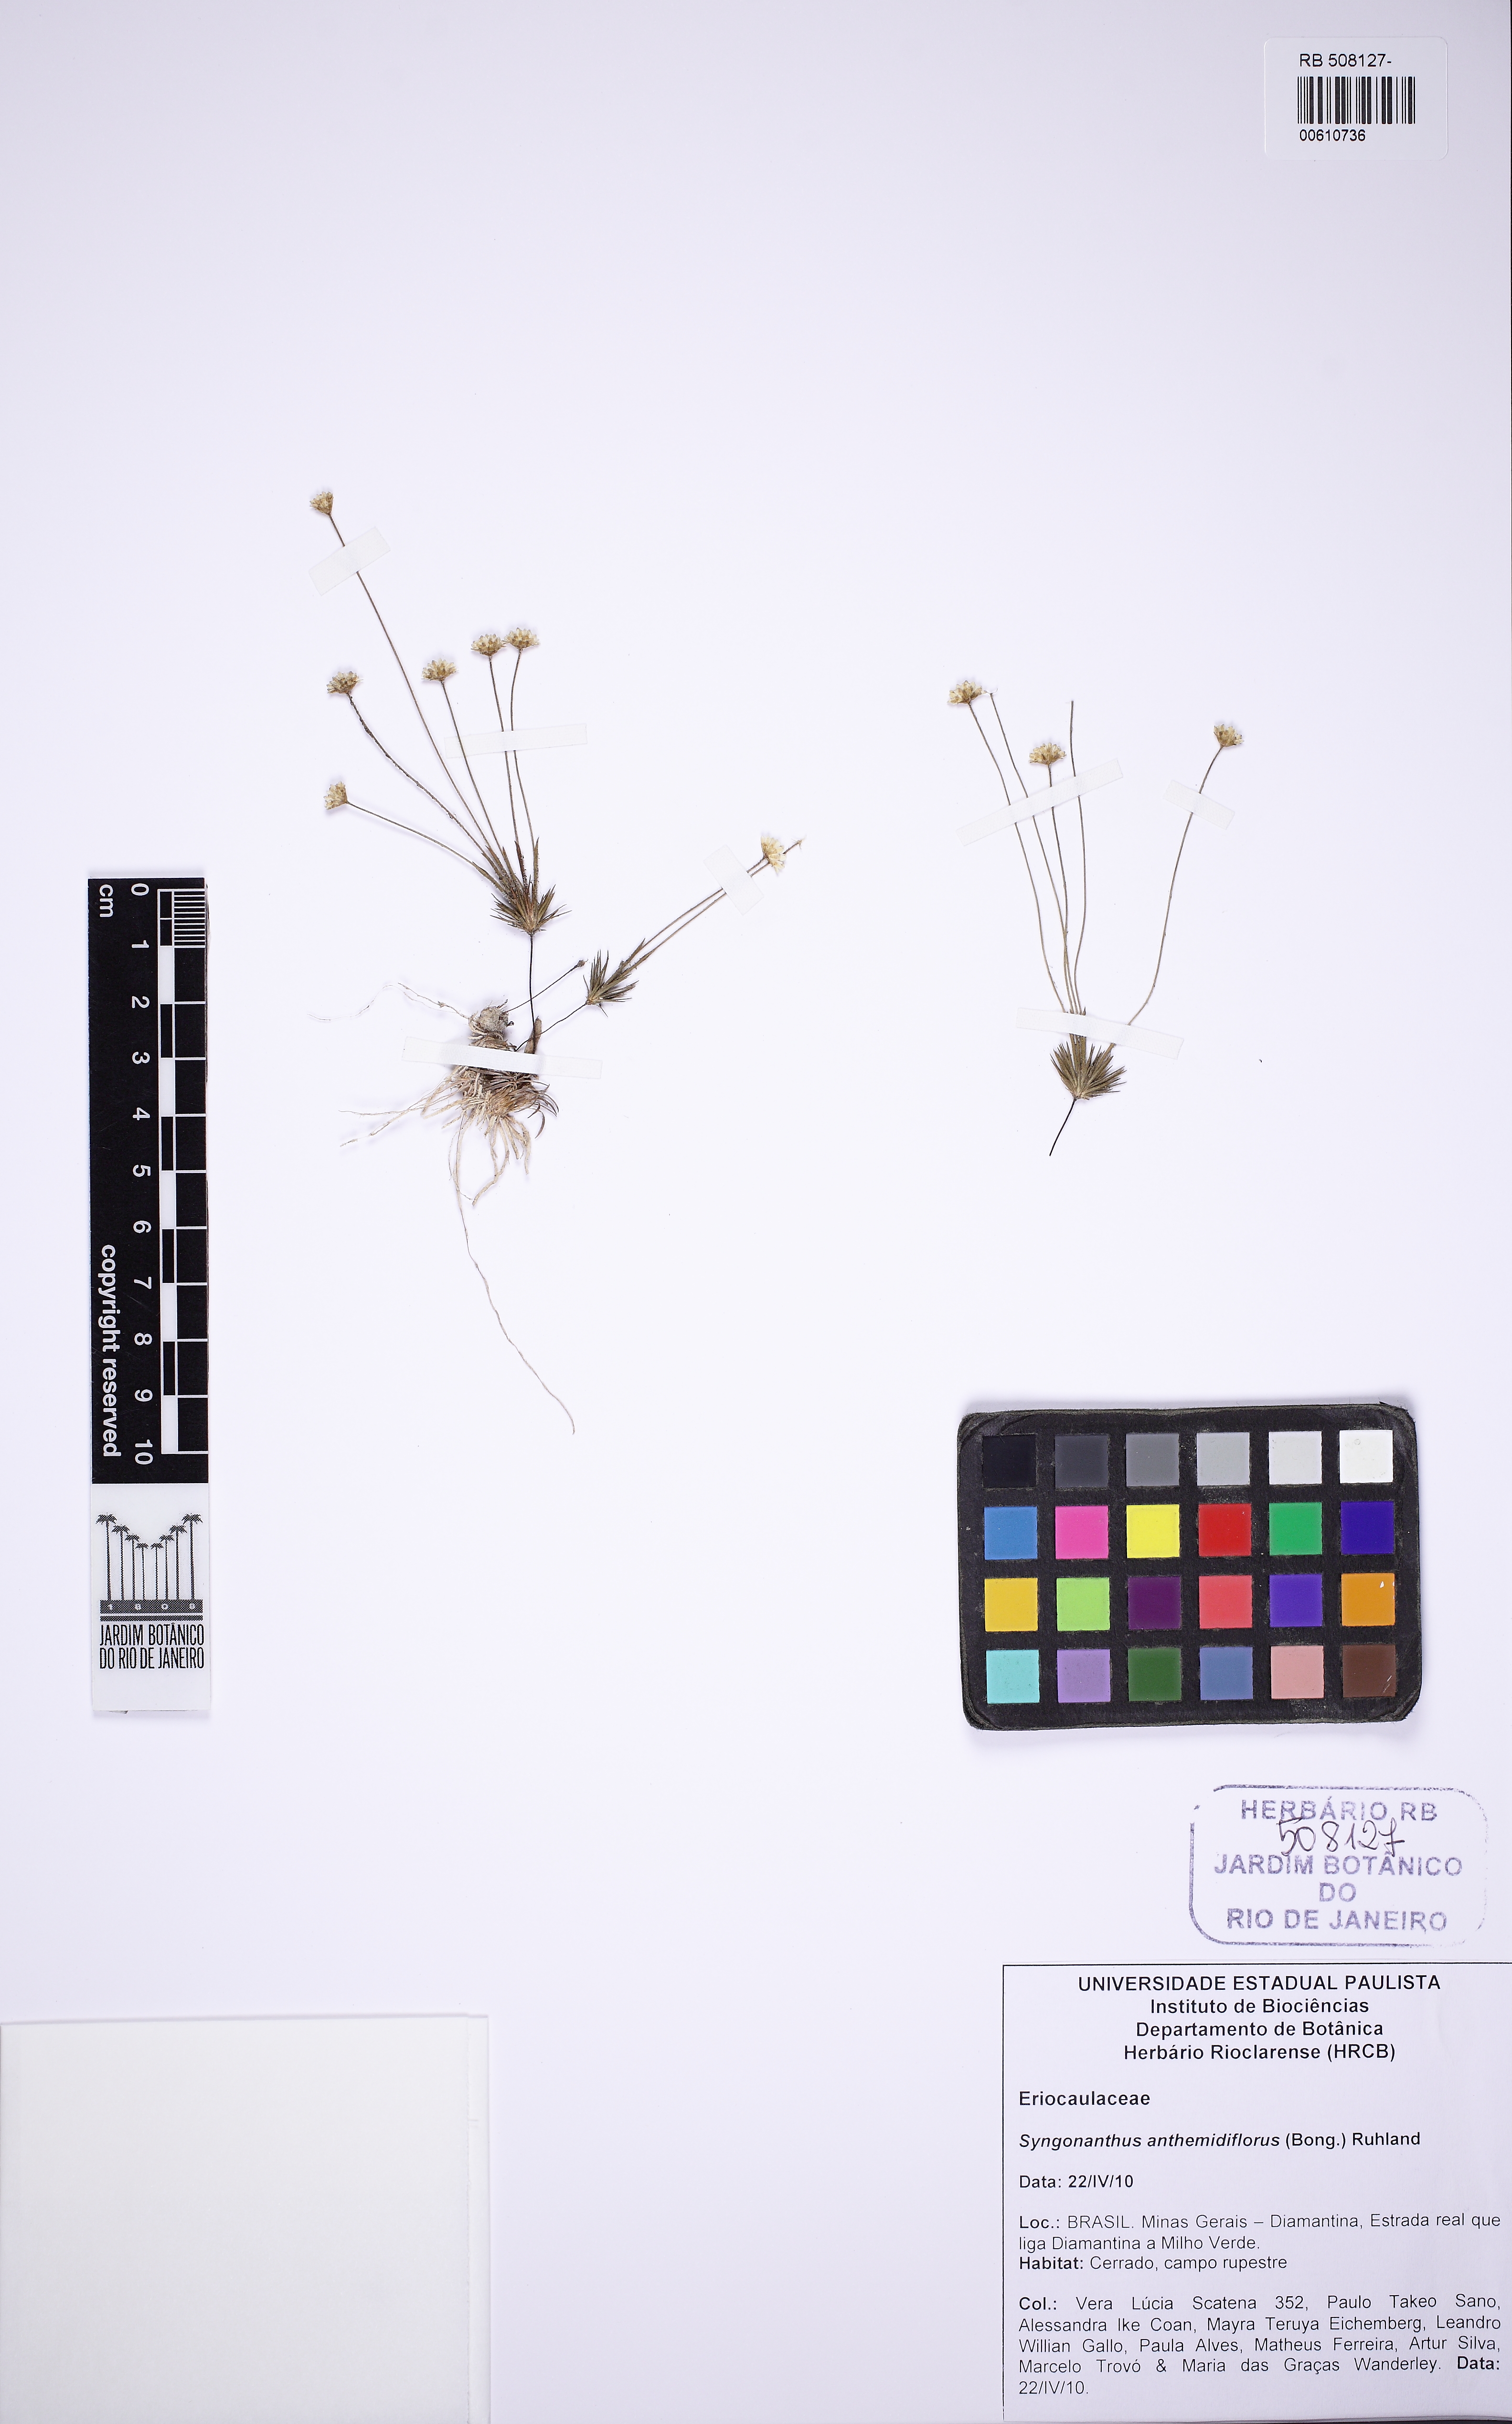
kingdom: Plantae
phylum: Tracheophyta
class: Liliopsida
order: Poales
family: Eriocaulaceae
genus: Syngonanthus
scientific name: Syngonanthus anthemidiflorus
